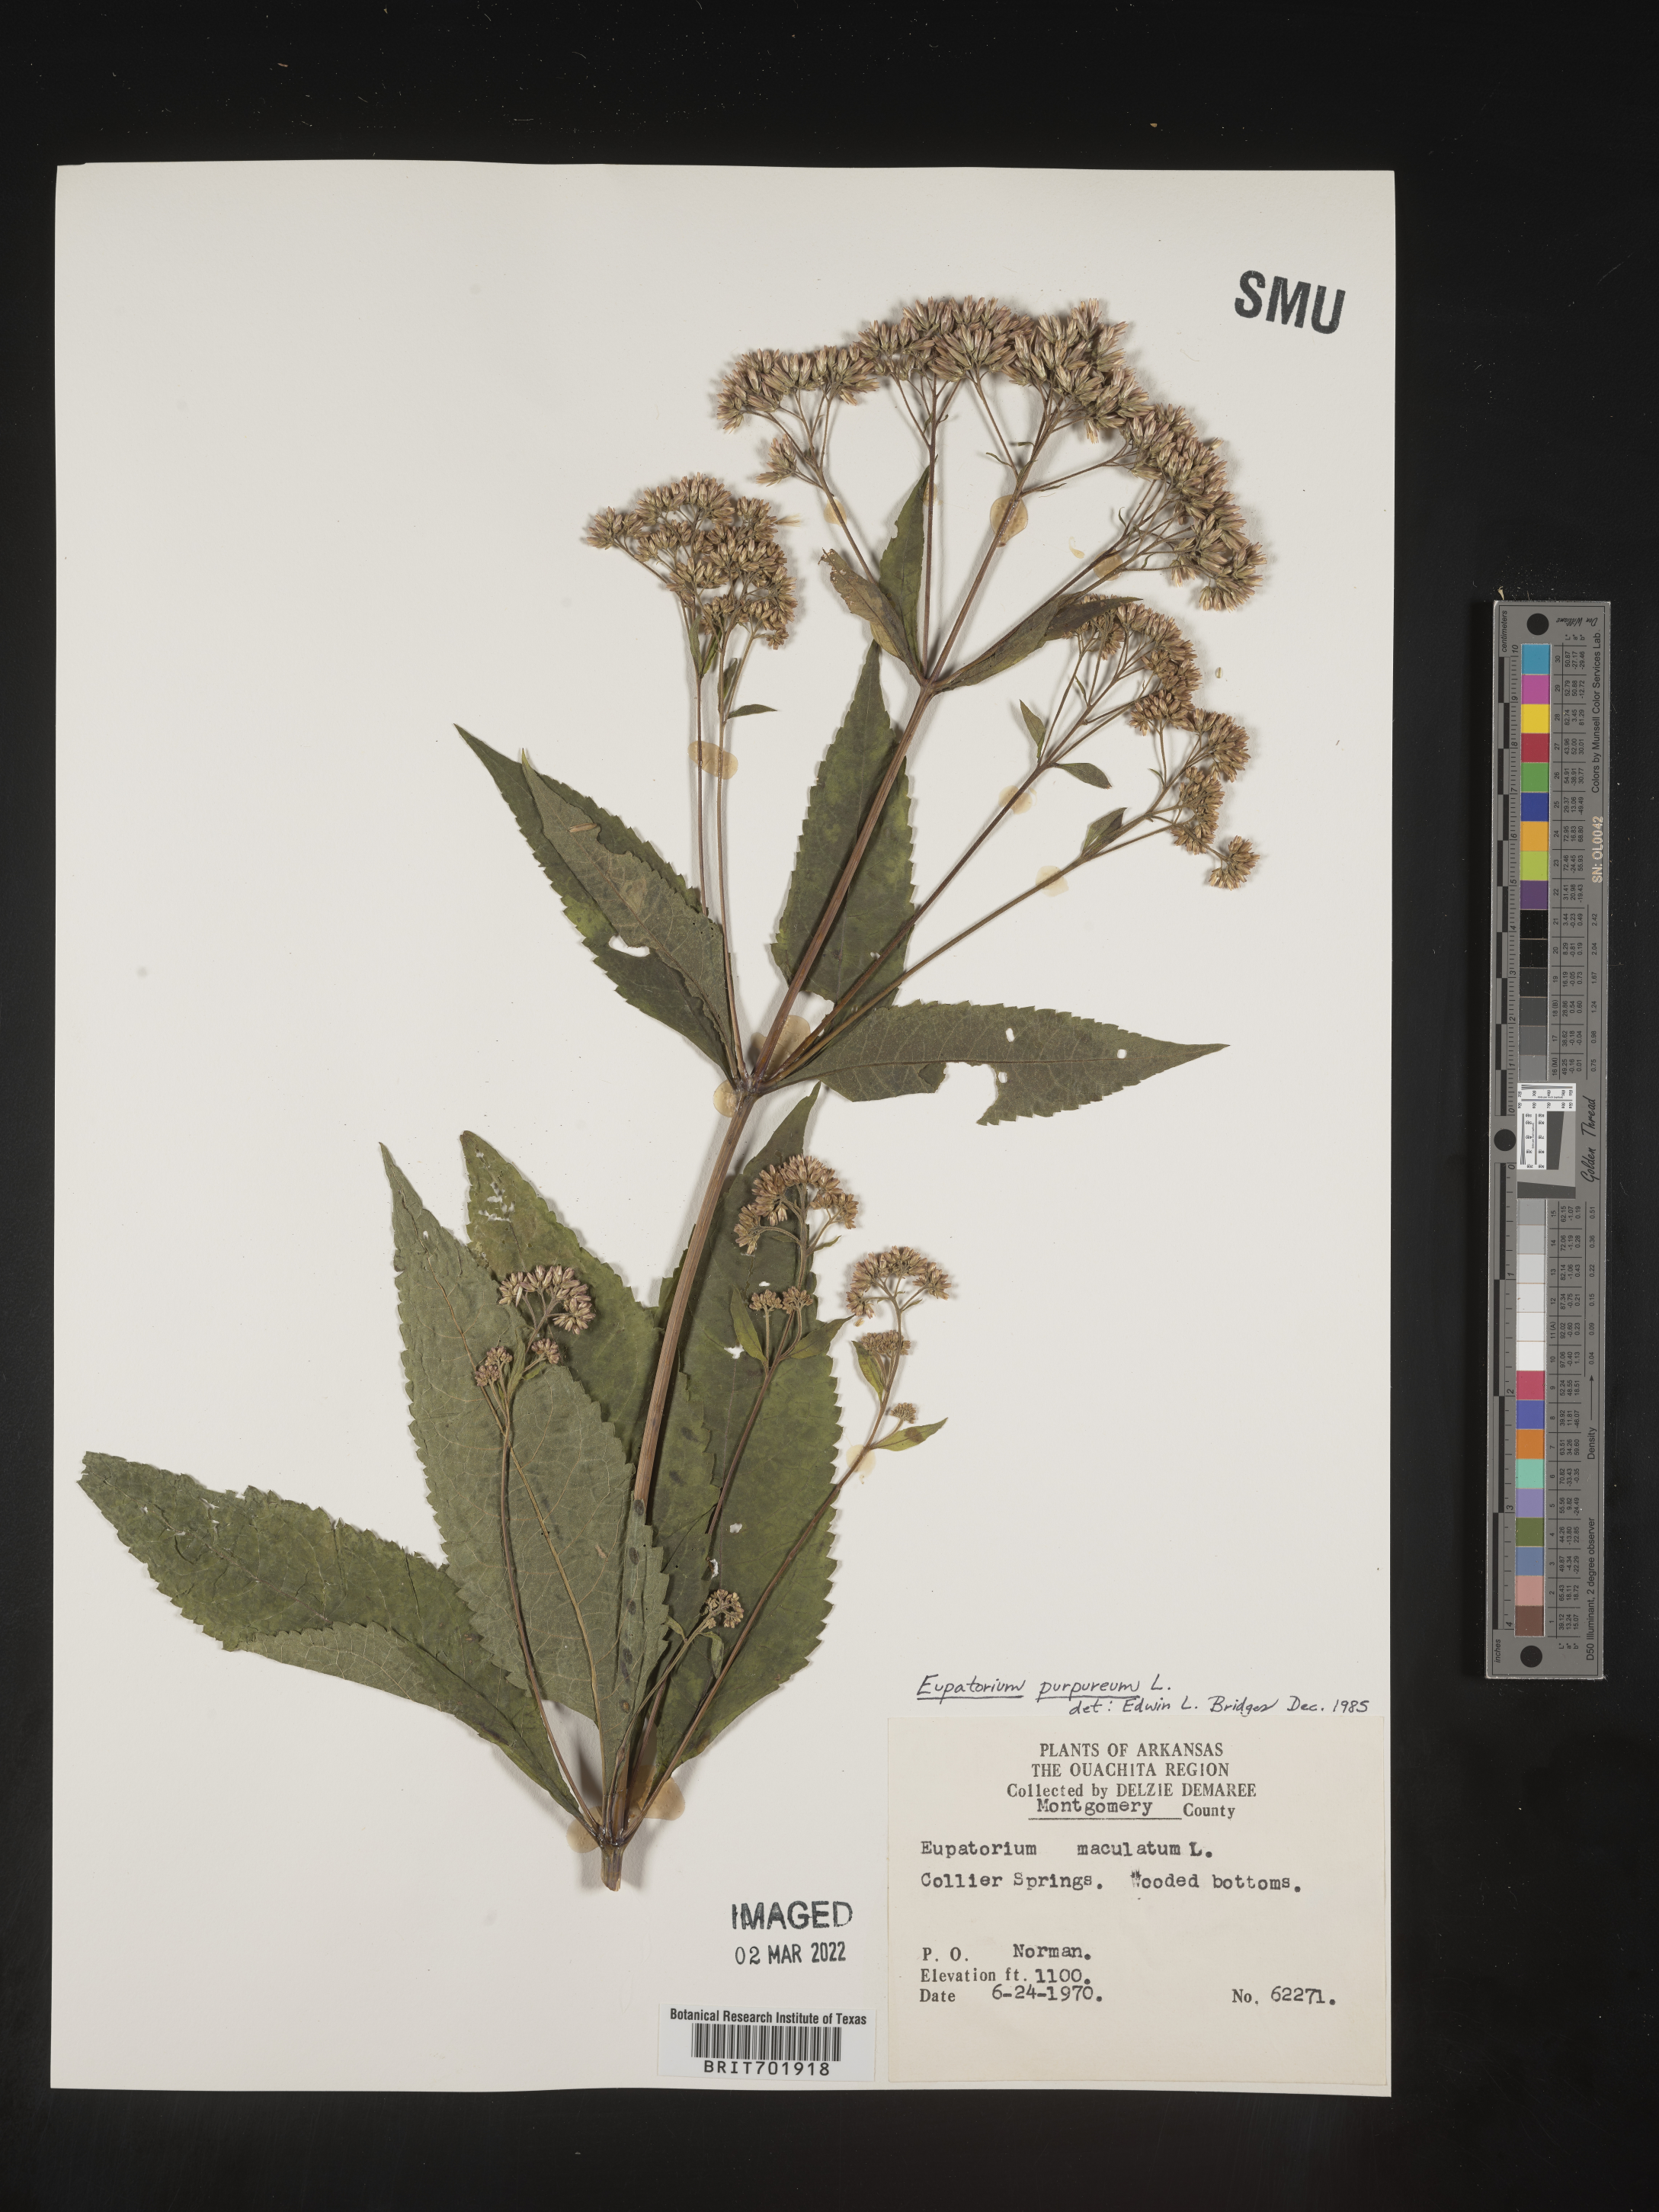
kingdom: Plantae
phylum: Tracheophyta
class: Magnoliopsida
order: Asterales
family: Asteraceae
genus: Eupatorium
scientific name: Eupatorium quaternum
